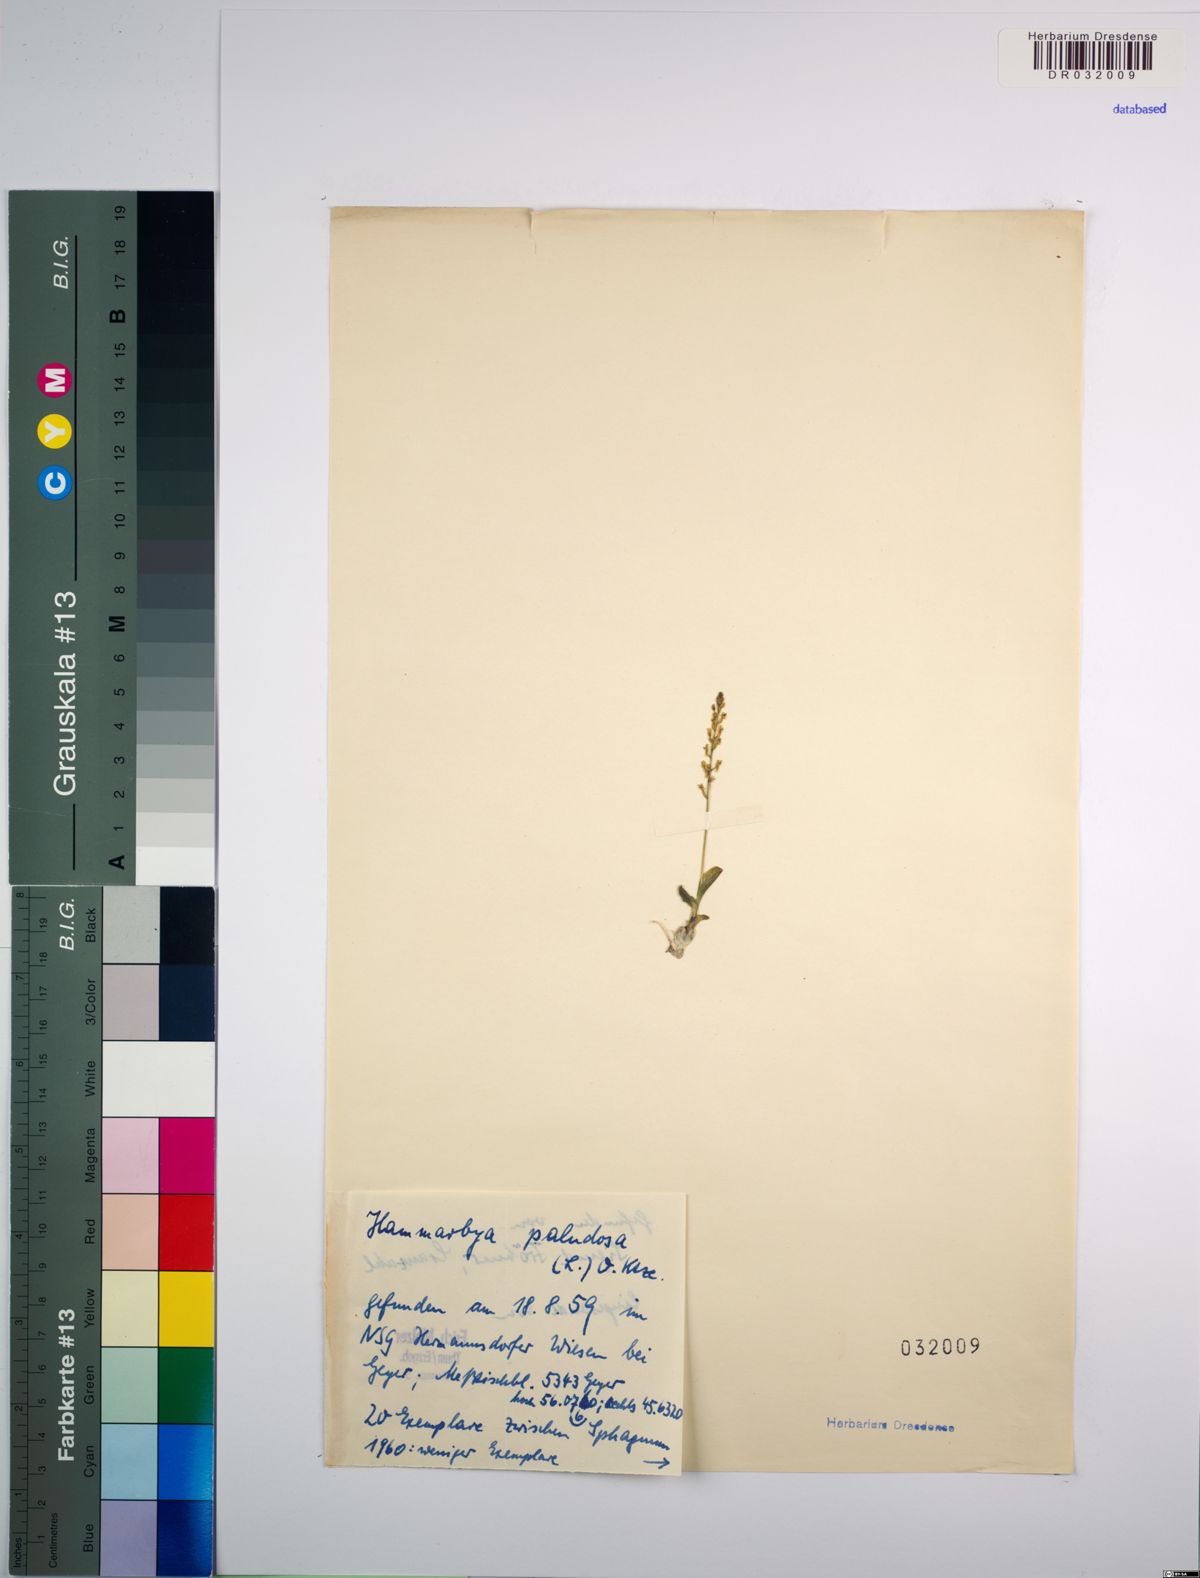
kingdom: Plantae
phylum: Tracheophyta
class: Liliopsida
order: Asparagales
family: Orchidaceae
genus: Hammarbya
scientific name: Hammarbya paludosa
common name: Bog orchid
